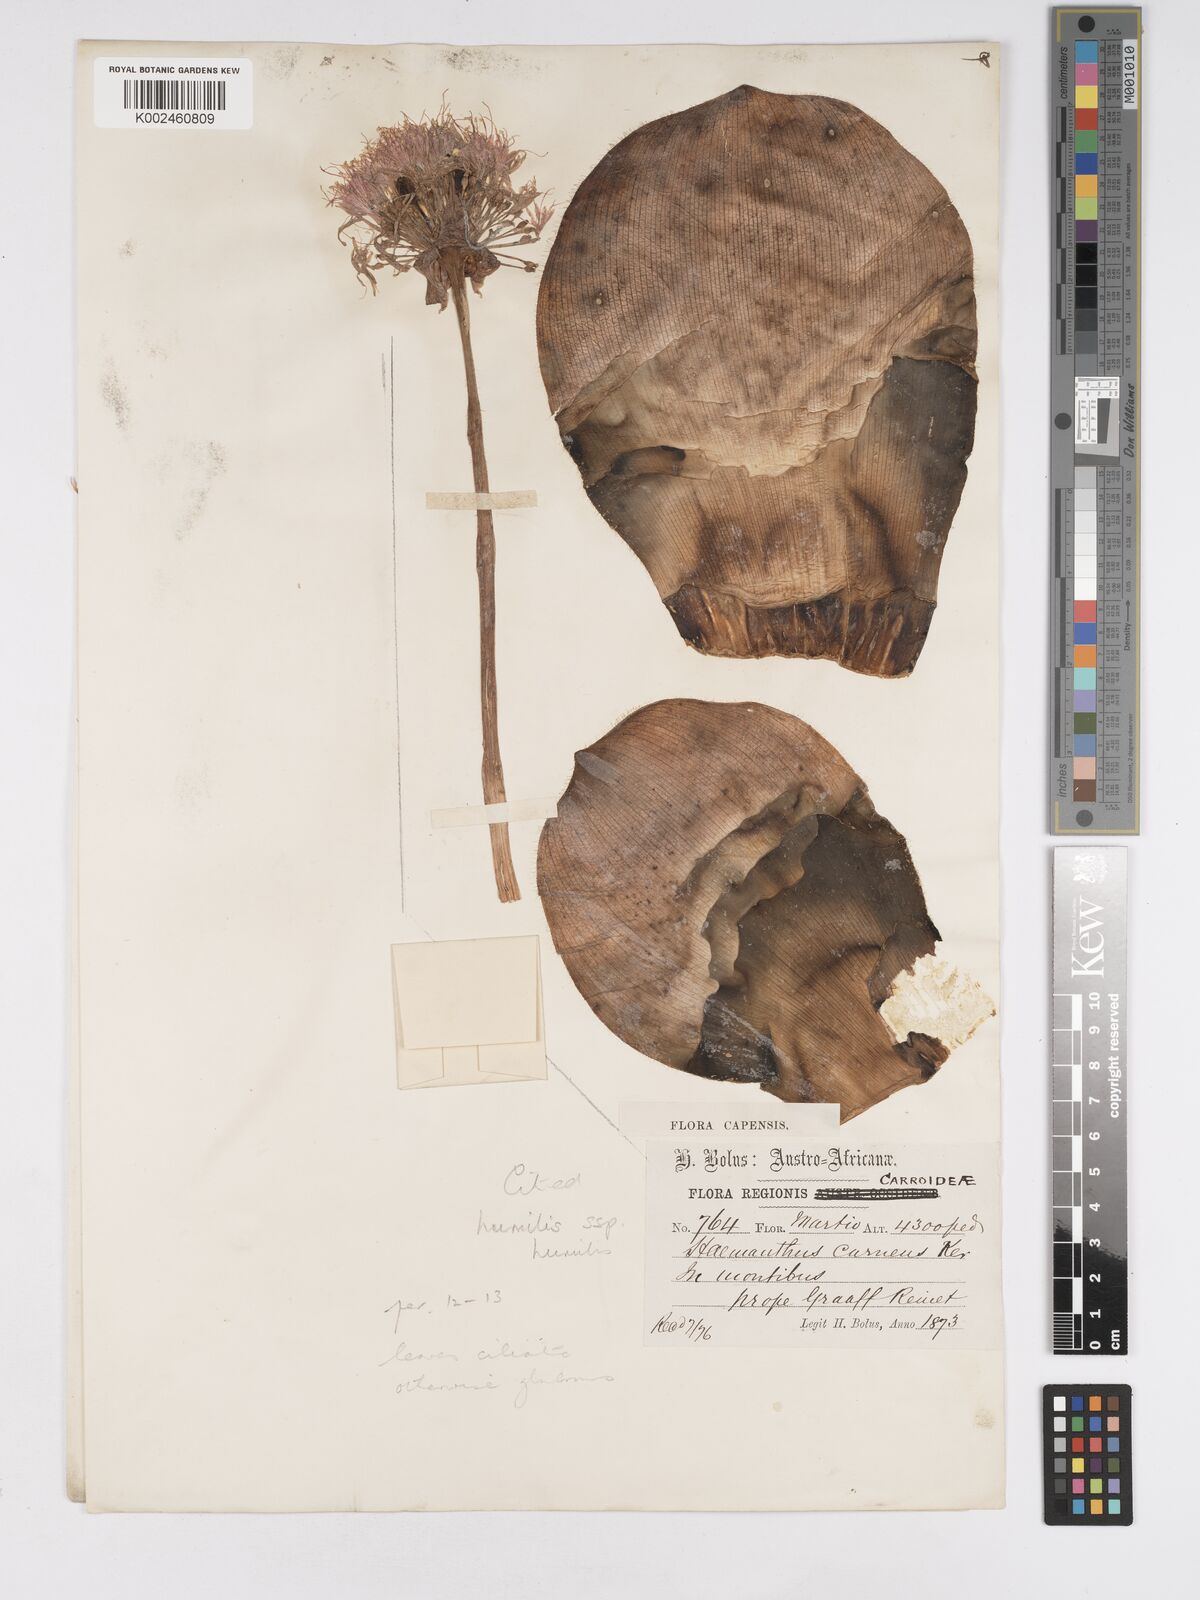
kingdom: Plantae
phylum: Tracheophyta
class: Liliopsida
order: Asparagales
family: Amaryllidaceae
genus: Haemanthus
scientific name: Haemanthus humilis
